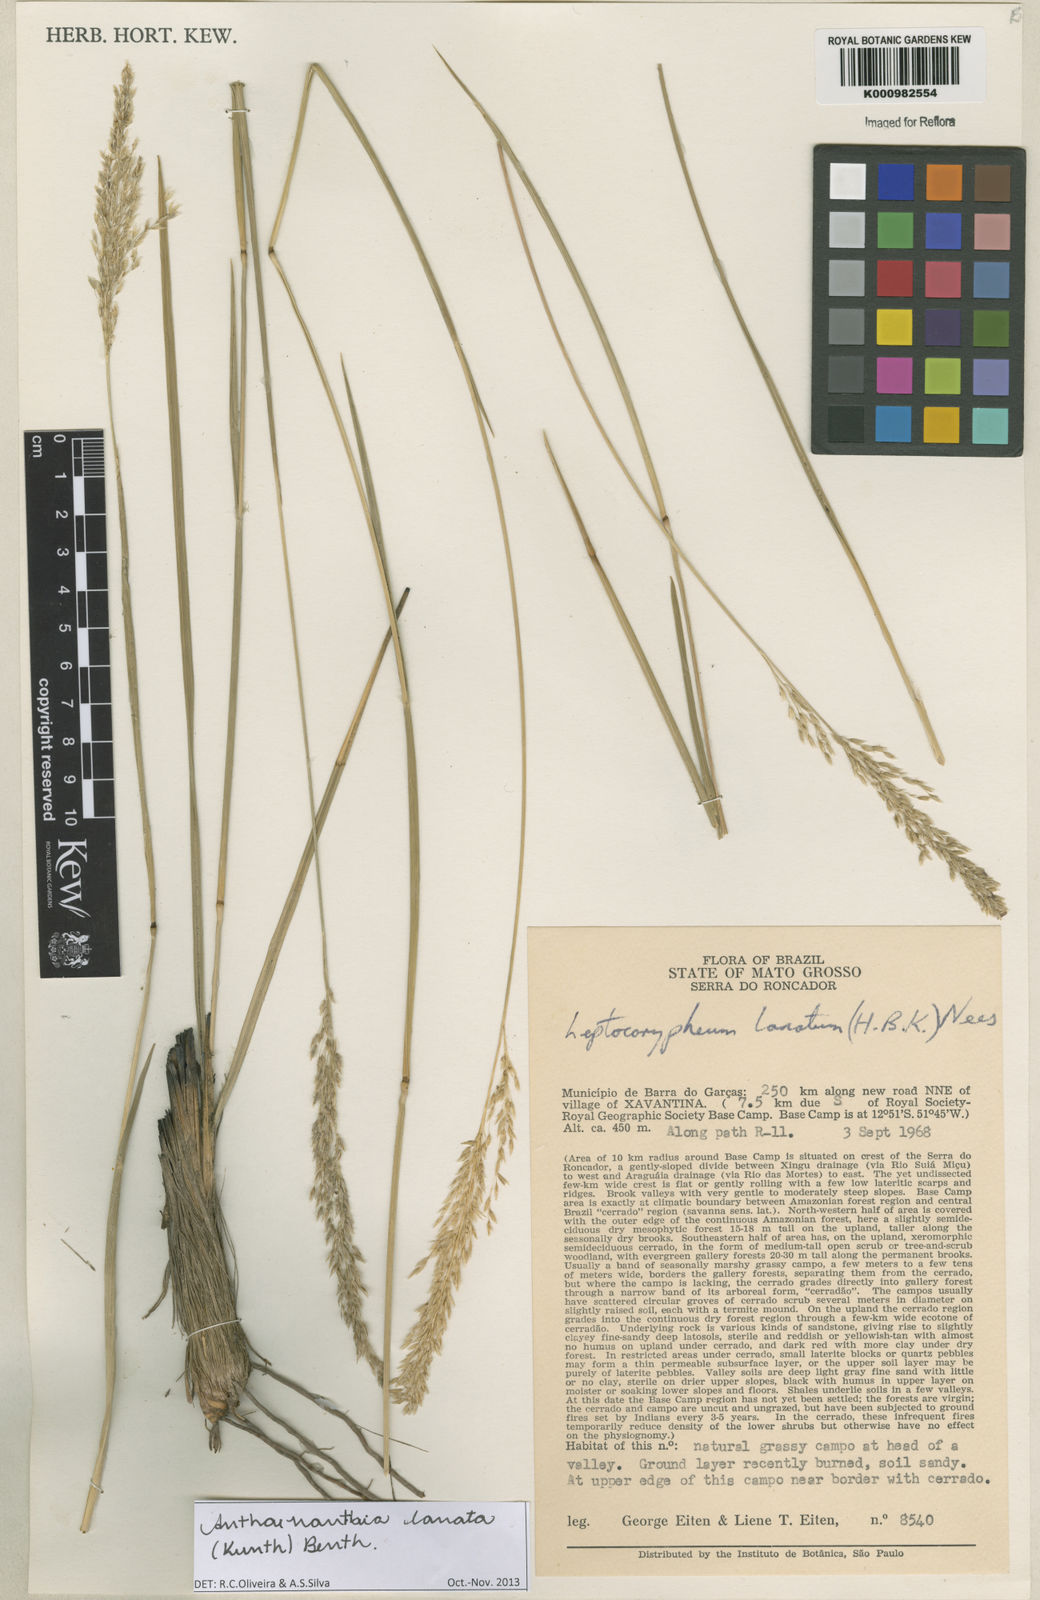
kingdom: Plantae
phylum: Tracheophyta
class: Liliopsida
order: Poales
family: Poaceae
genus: Anthenantia
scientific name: Anthenantia lanata
